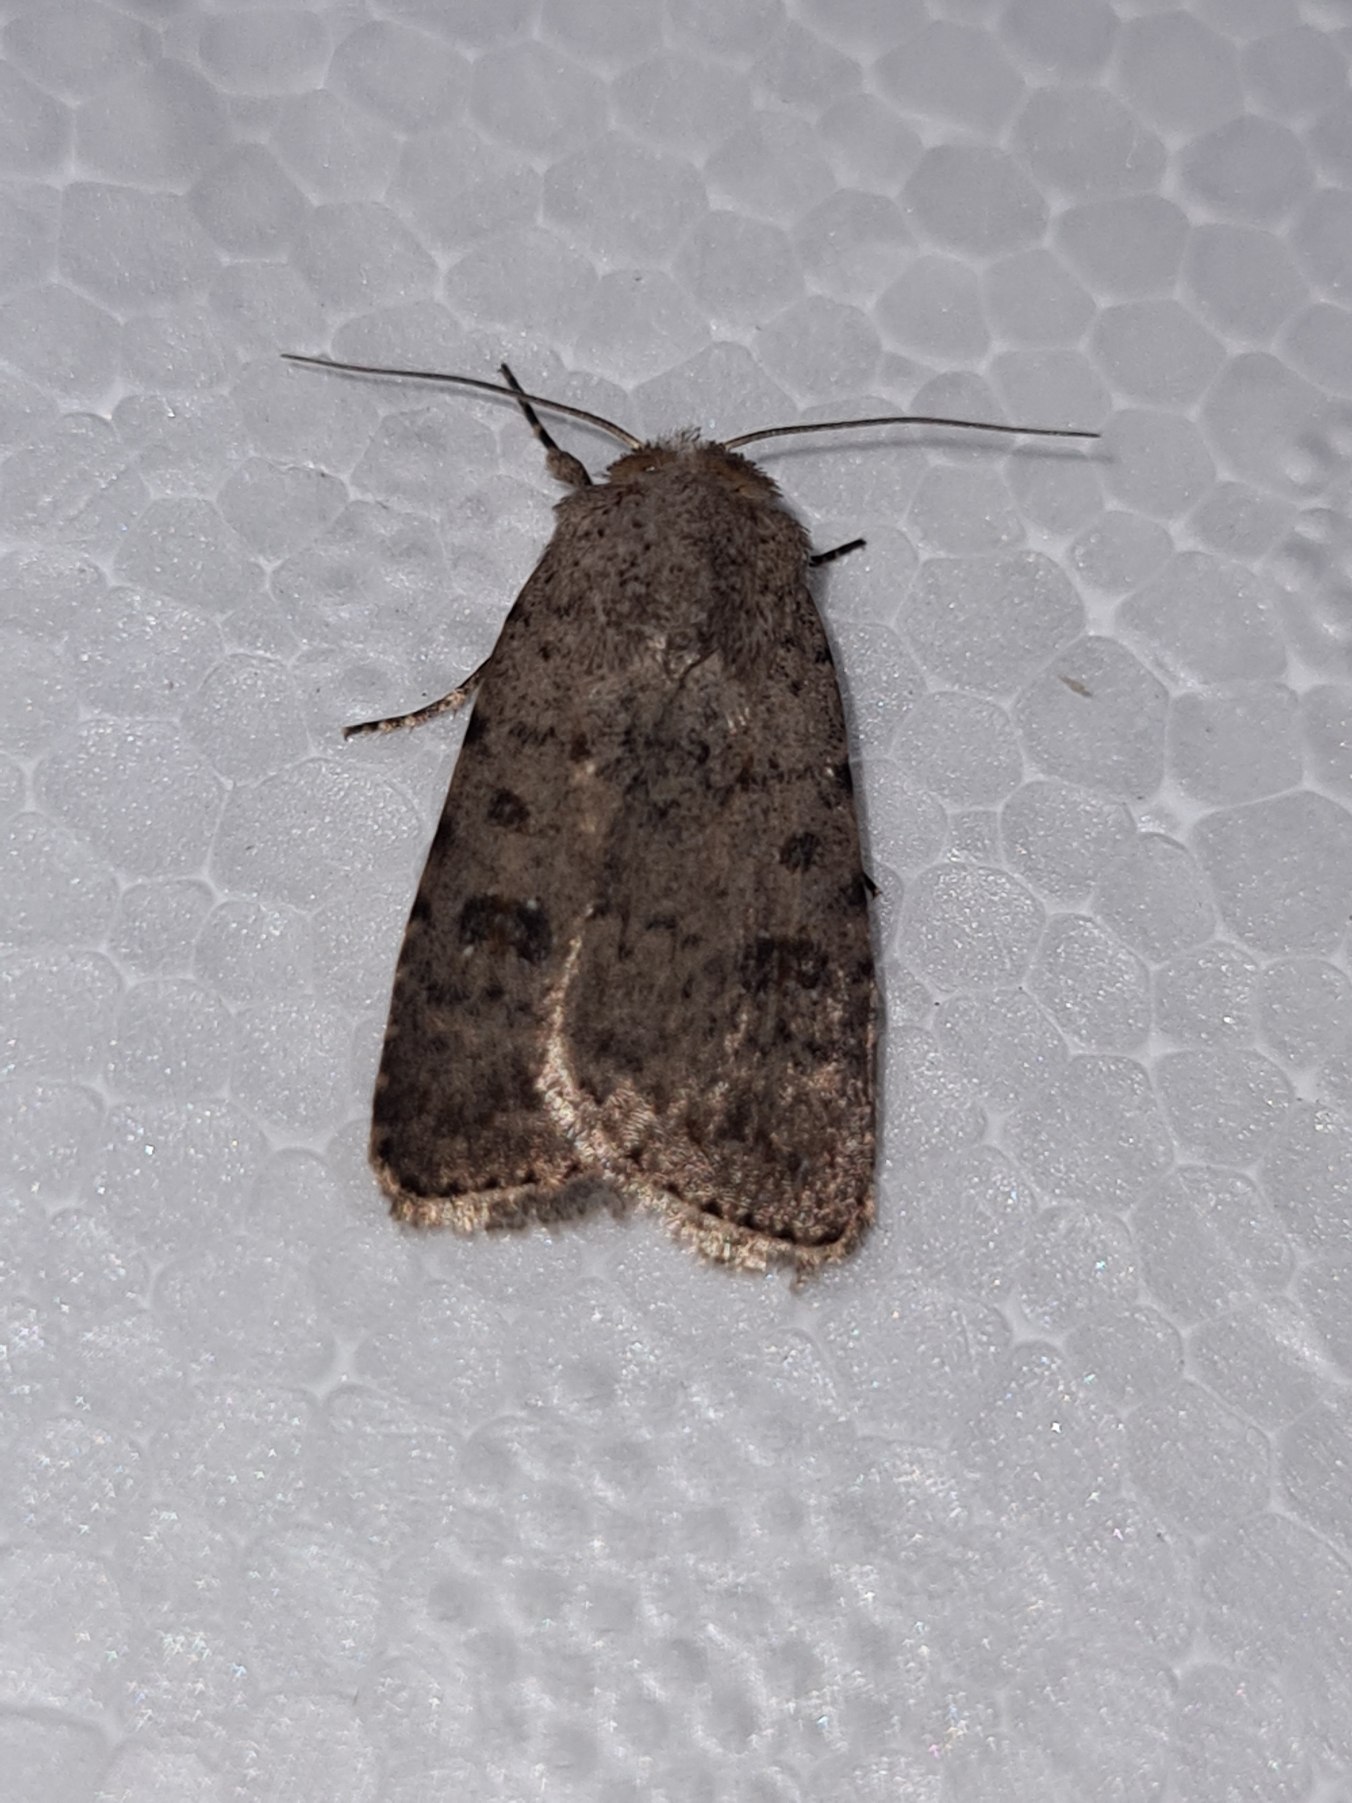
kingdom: Animalia
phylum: Arthropoda
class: Insecta
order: Lepidoptera
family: Noctuidae
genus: Caradrina
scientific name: Caradrina clavipalpis
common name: Stråtagsugle
